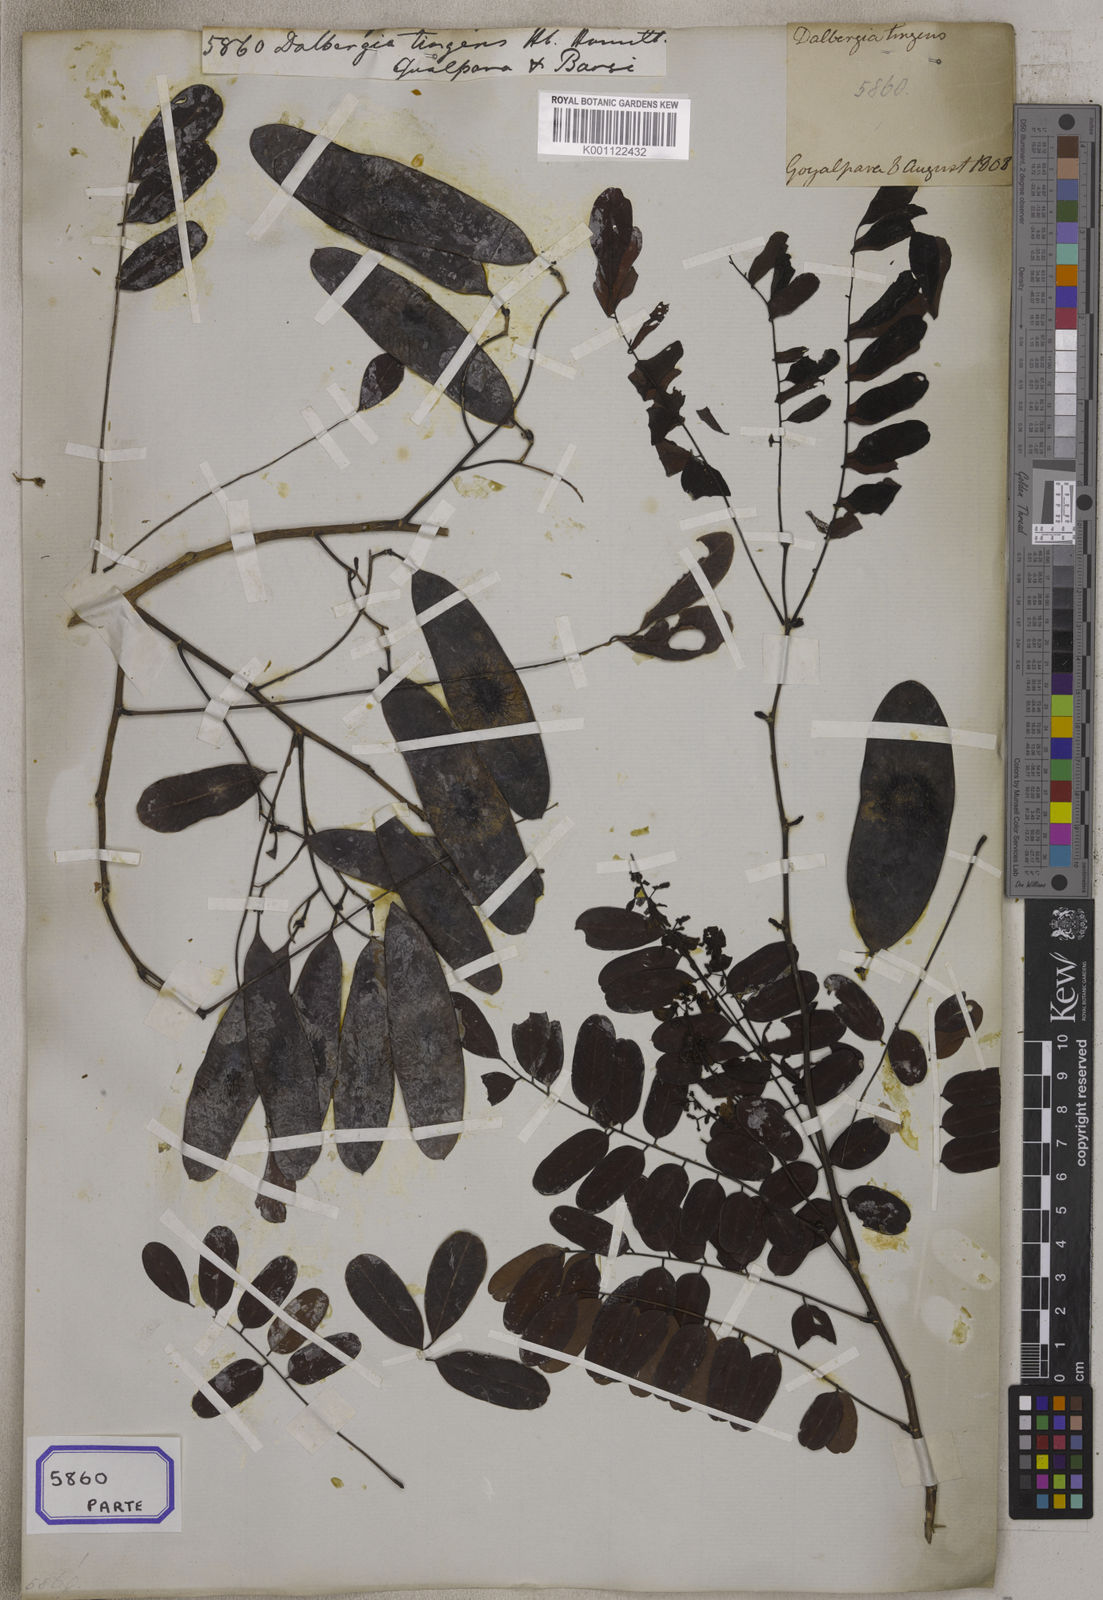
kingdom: Plantae
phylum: Tracheophyta
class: Magnoliopsida
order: Fabales
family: Fabaceae
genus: Dalbergia
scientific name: Dalbergia
